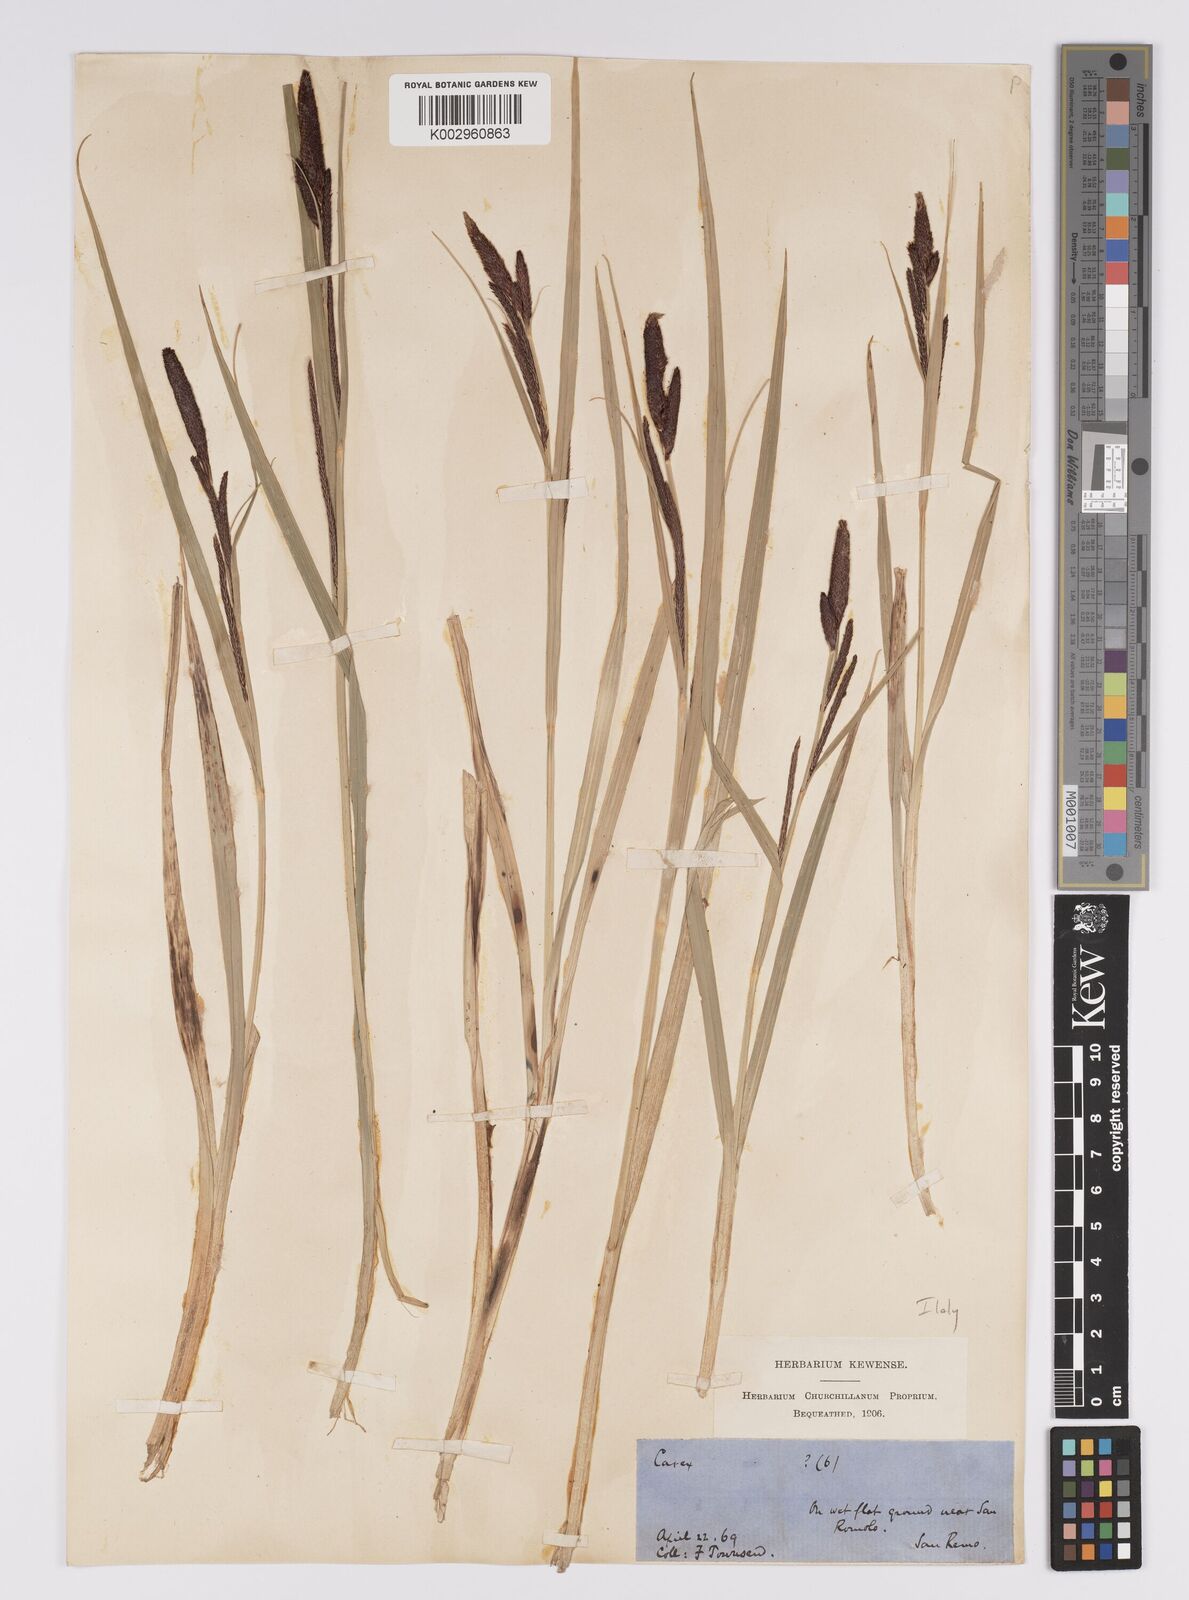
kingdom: Plantae
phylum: Tracheophyta
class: Liliopsida
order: Poales
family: Cyperaceae
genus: Carex
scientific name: Carex acutiformis
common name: Lesser pond-sedge
